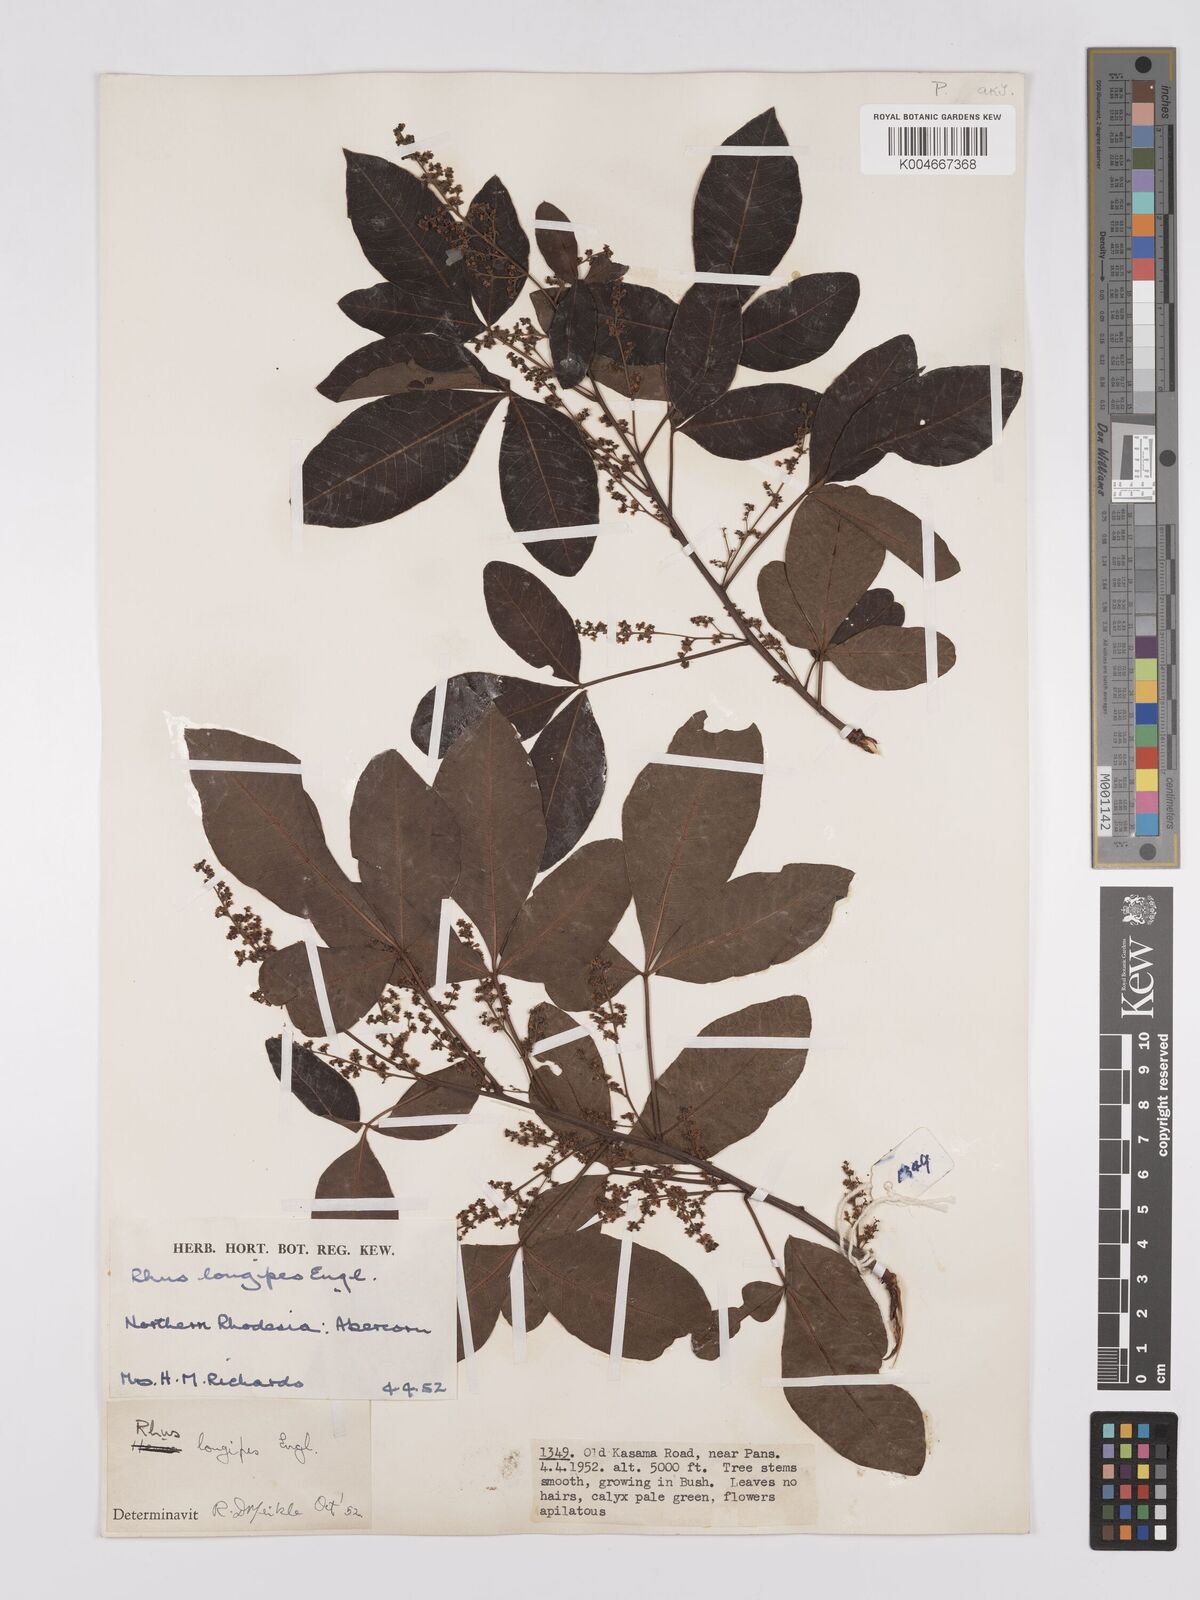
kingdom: Plantae
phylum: Tracheophyta
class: Magnoliopsida
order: Sapindales
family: Anacardiaceae
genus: Searsia
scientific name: Searsia longipes
